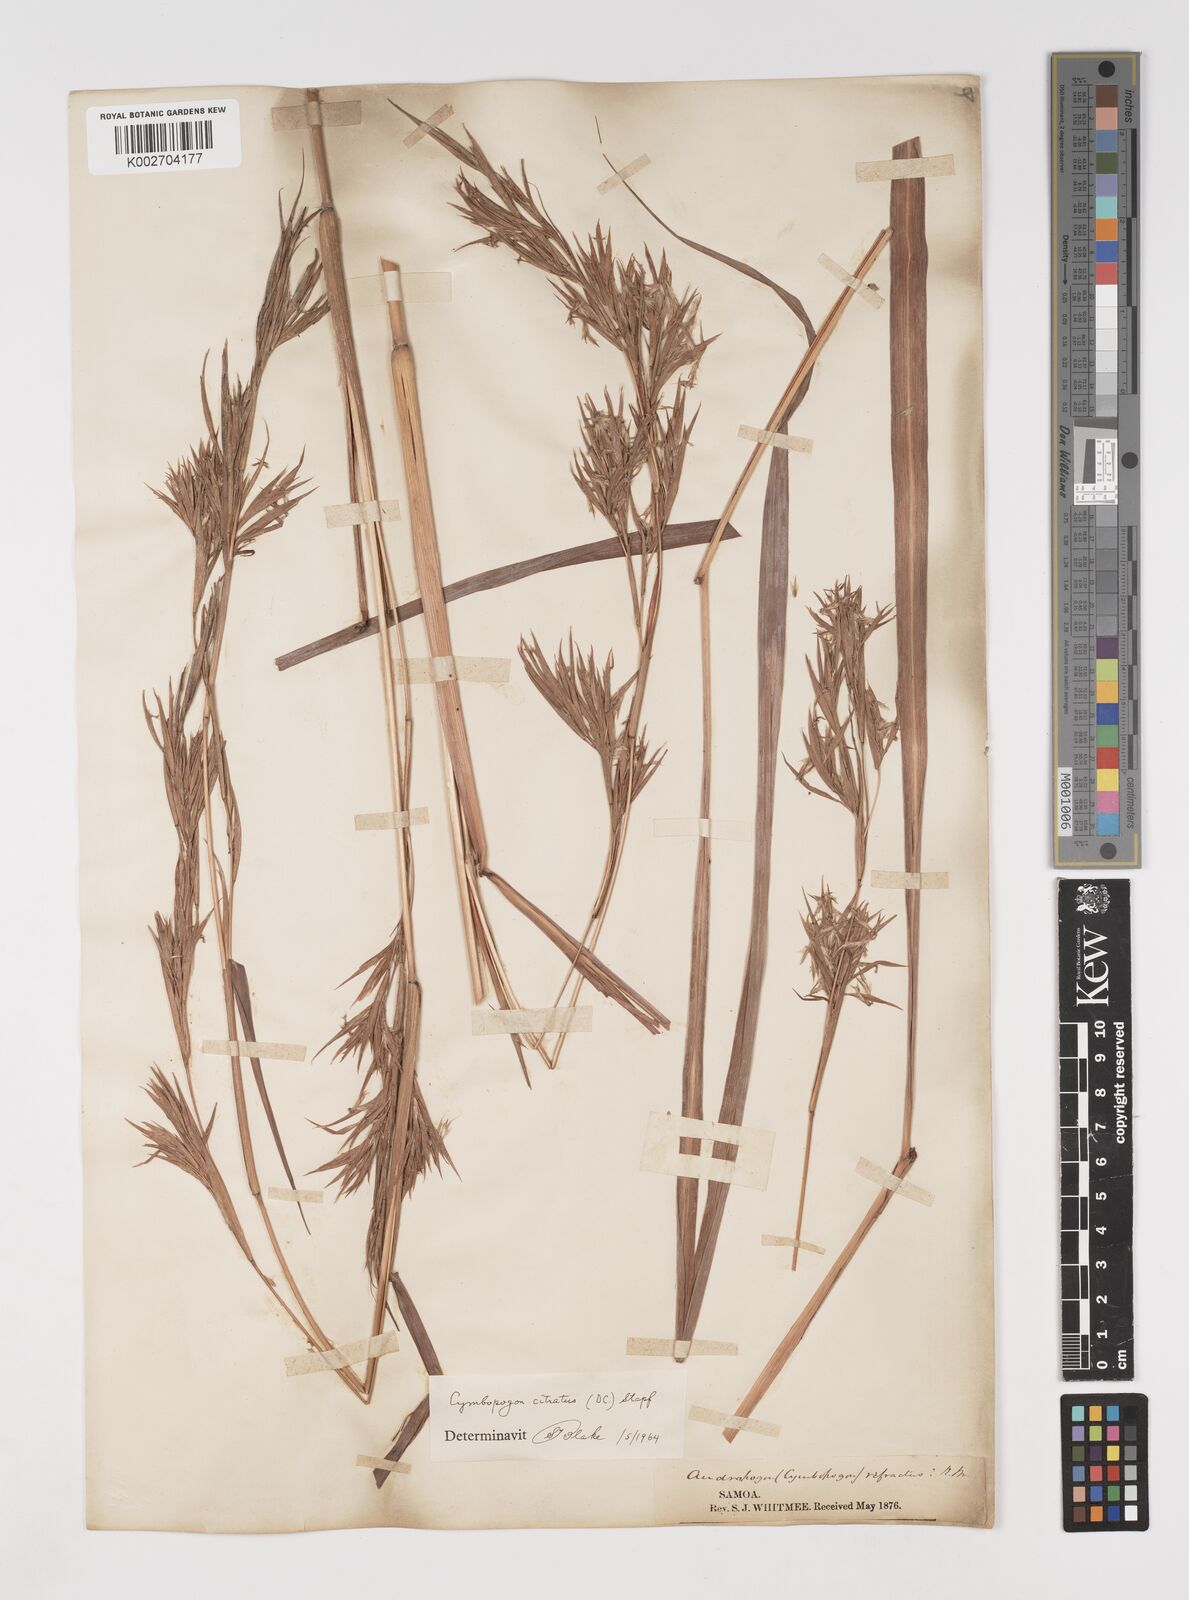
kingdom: Plantae
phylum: Tracheophyta
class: Liliopsida
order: Poales
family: Poaceae
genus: Cymbopogon
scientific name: Cymbopogon citratus
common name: Lemon grass
